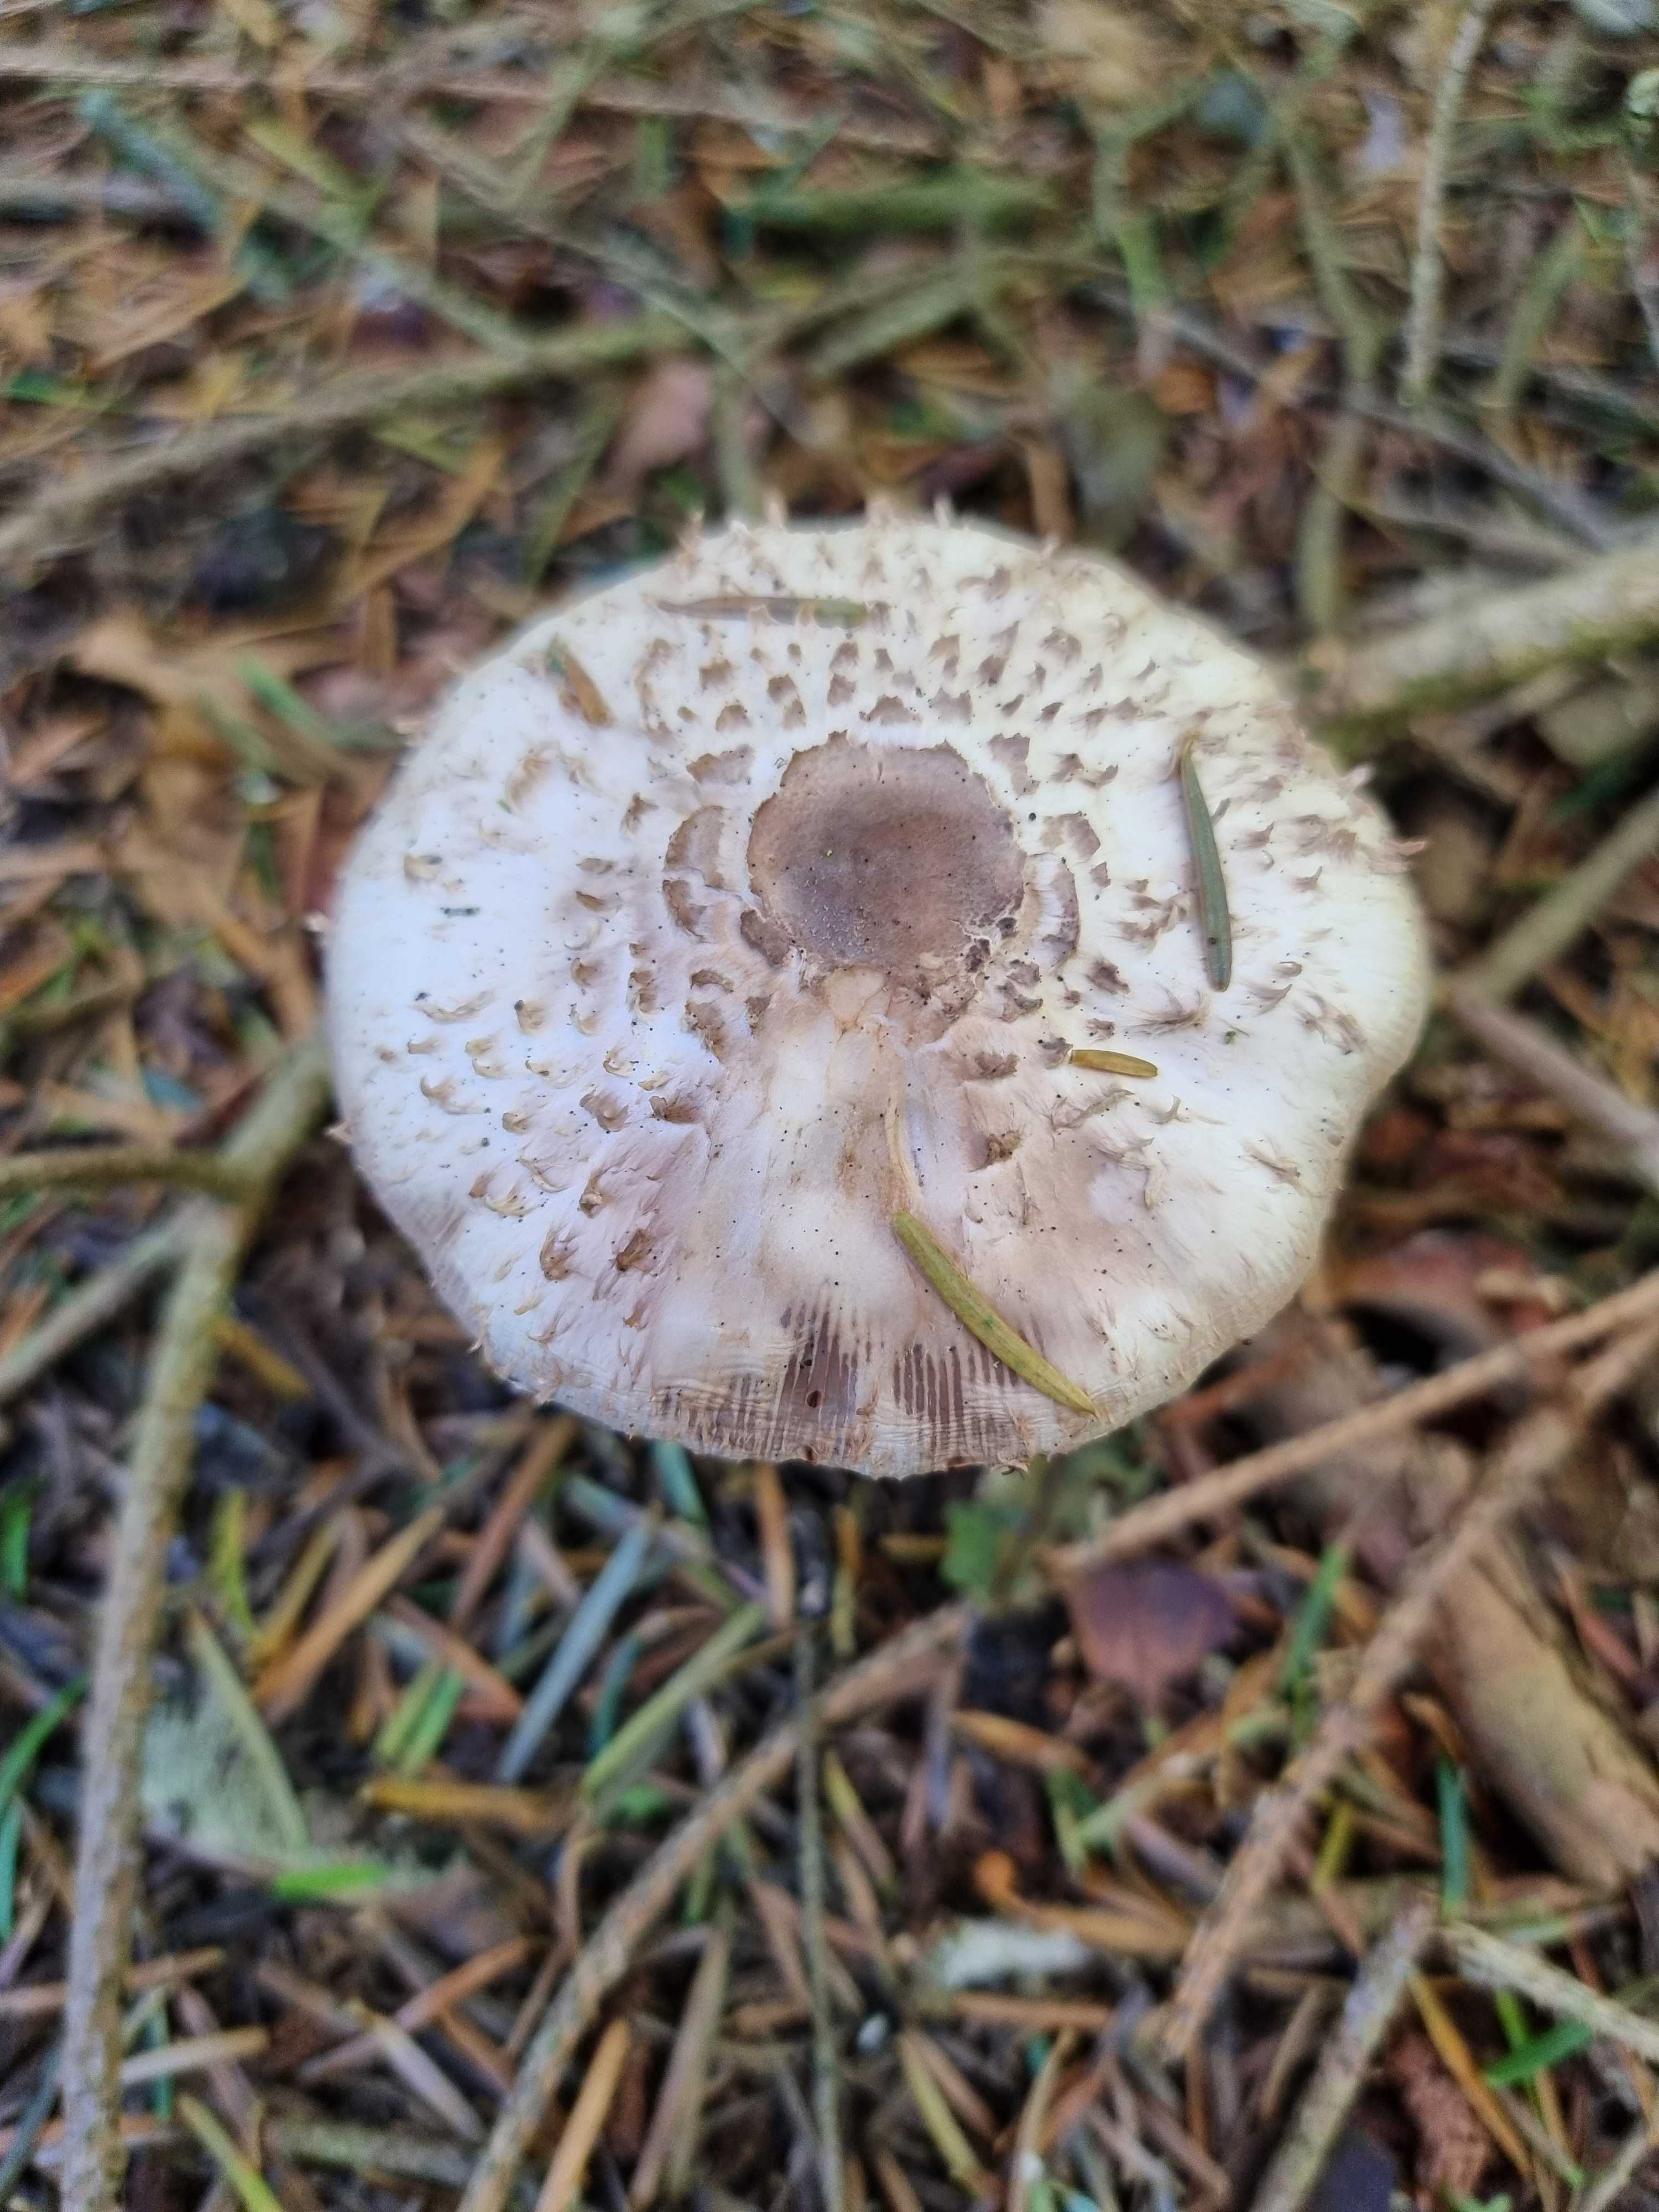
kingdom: Fungi
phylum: Basidiomycota
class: Agaricomycetes
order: Agaricales
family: Agaricaceae
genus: Leucoagaricus
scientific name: Leucoagaricus nympharum
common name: gran-silkehat
